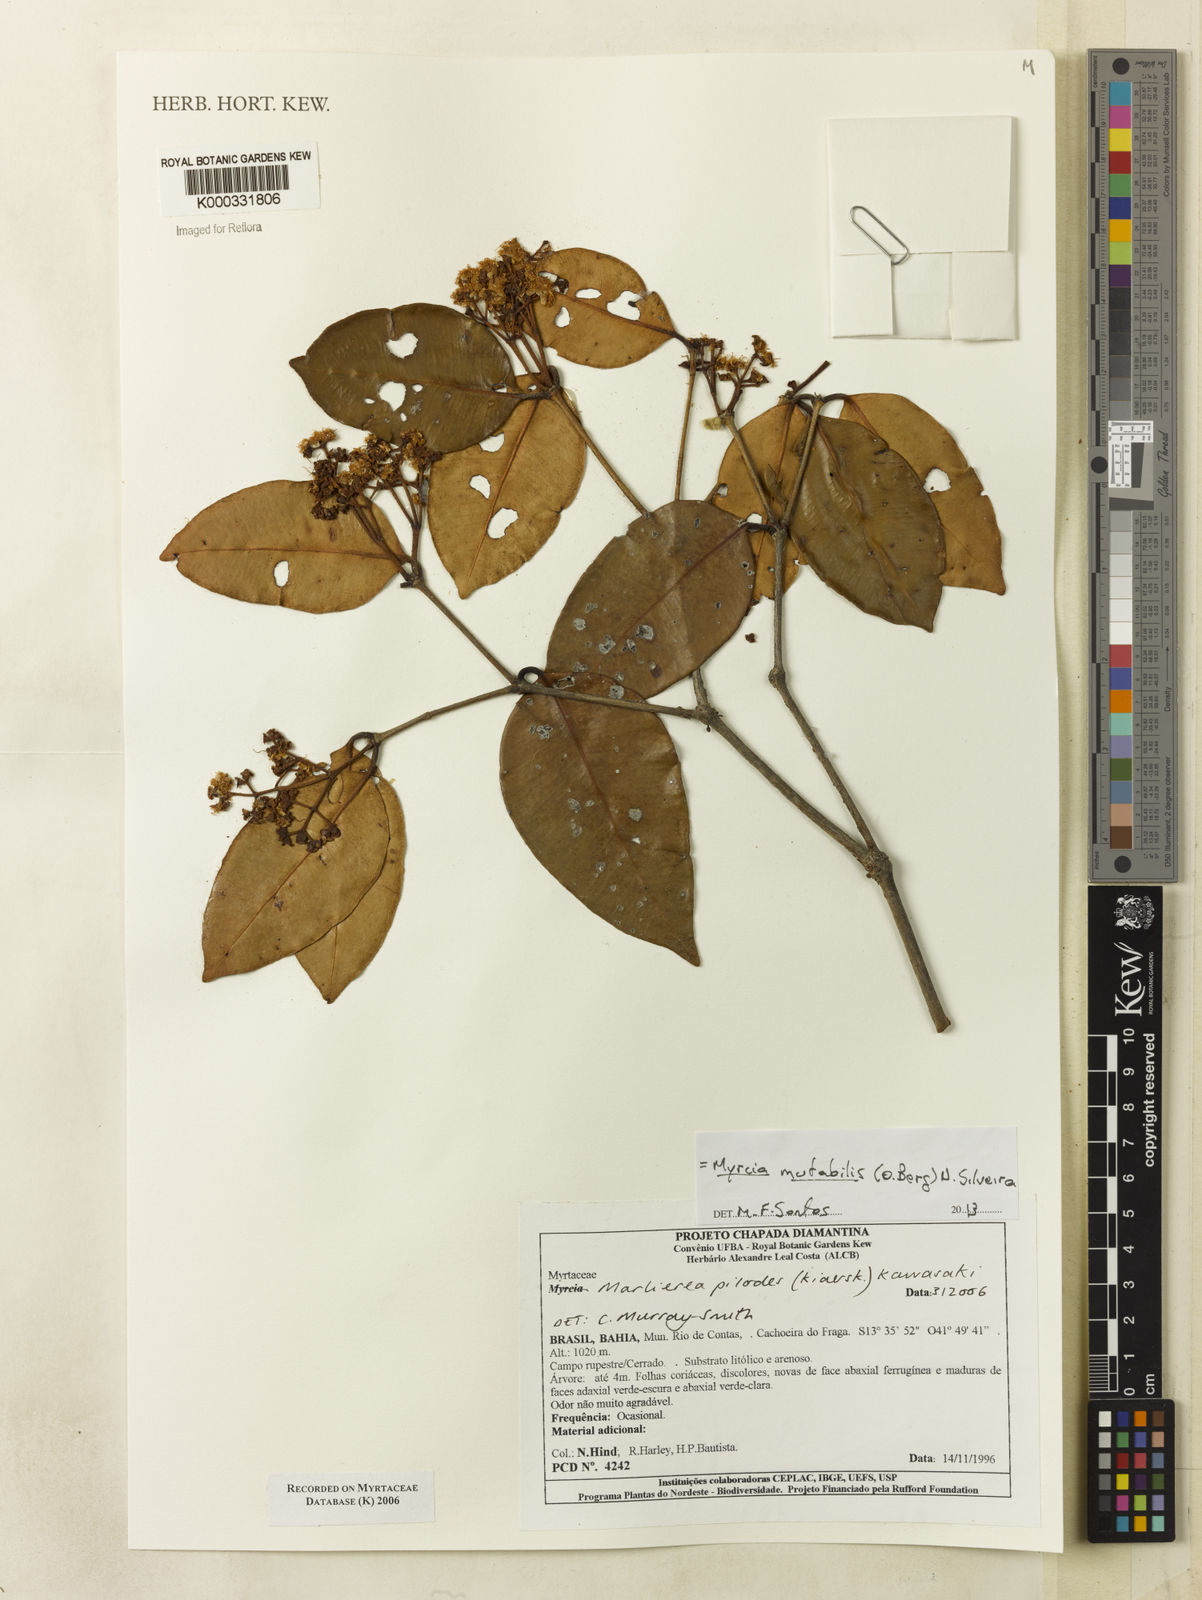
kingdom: Plantae
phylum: Tracheophyta
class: Magnoliopsida
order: Myrtales
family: Myrtaceae
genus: Myrcia
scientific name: Myrcia
